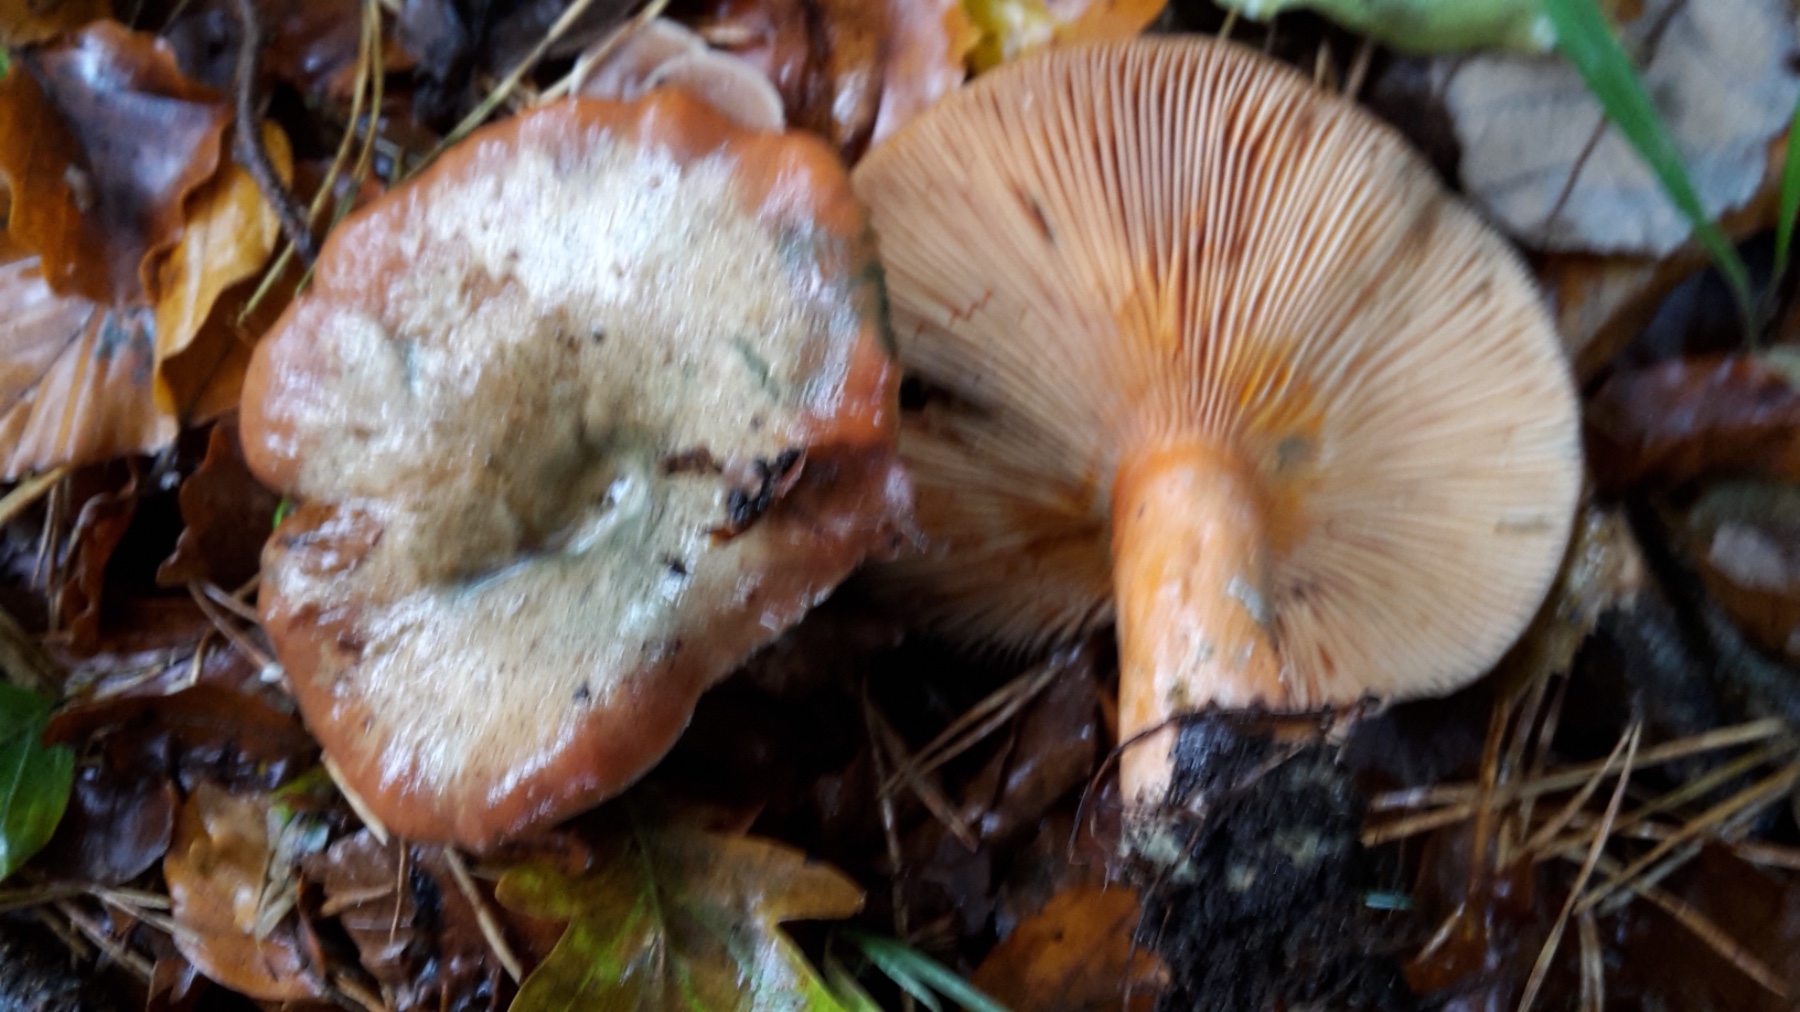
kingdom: Fungi
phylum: Basidiomycota
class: Agaricomycetes
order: Russulales
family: Russulaceae
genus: Lactarius
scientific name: Lactarius deterrimus
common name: gran-mælkehat
